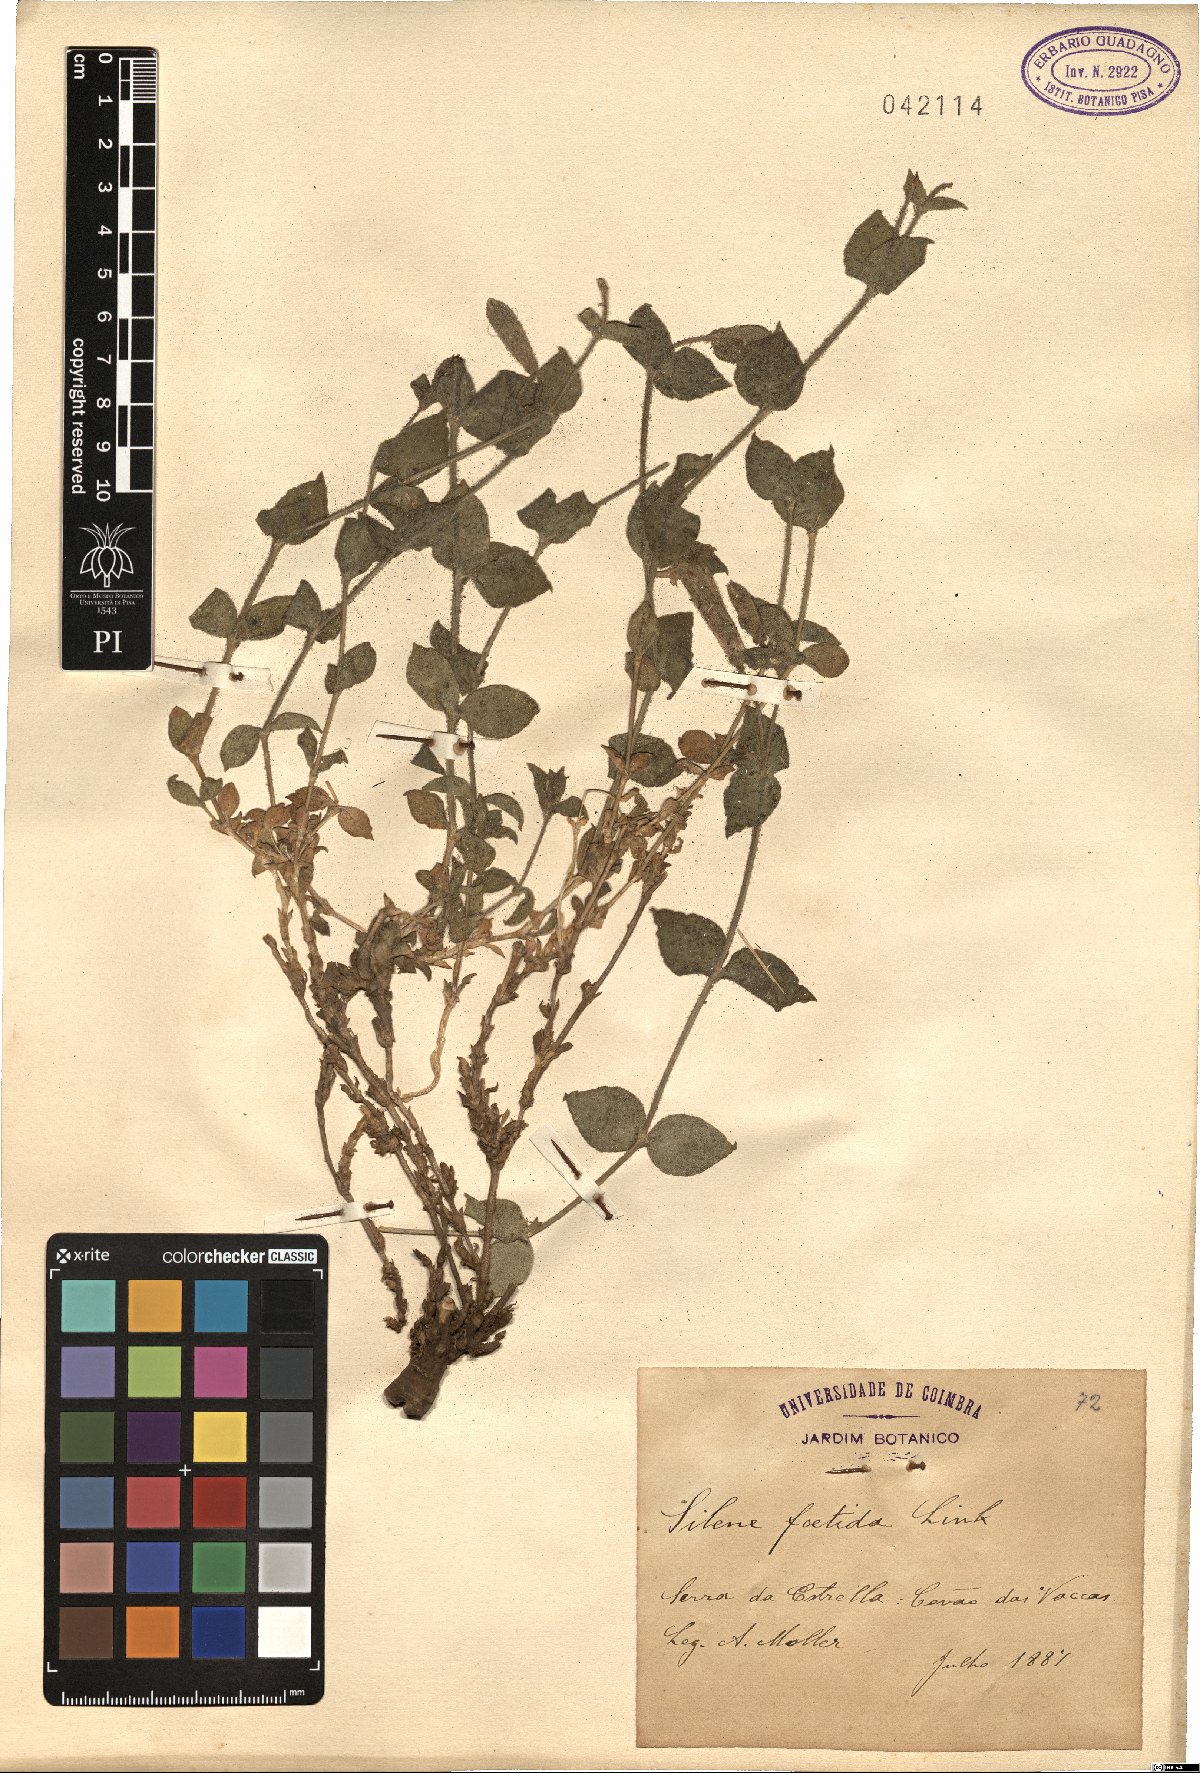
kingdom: Plantae
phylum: Tracheophyta
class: Magnoliopsida
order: Caryophyllales
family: Caryophyllaceae
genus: Silene
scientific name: Silene foetida
